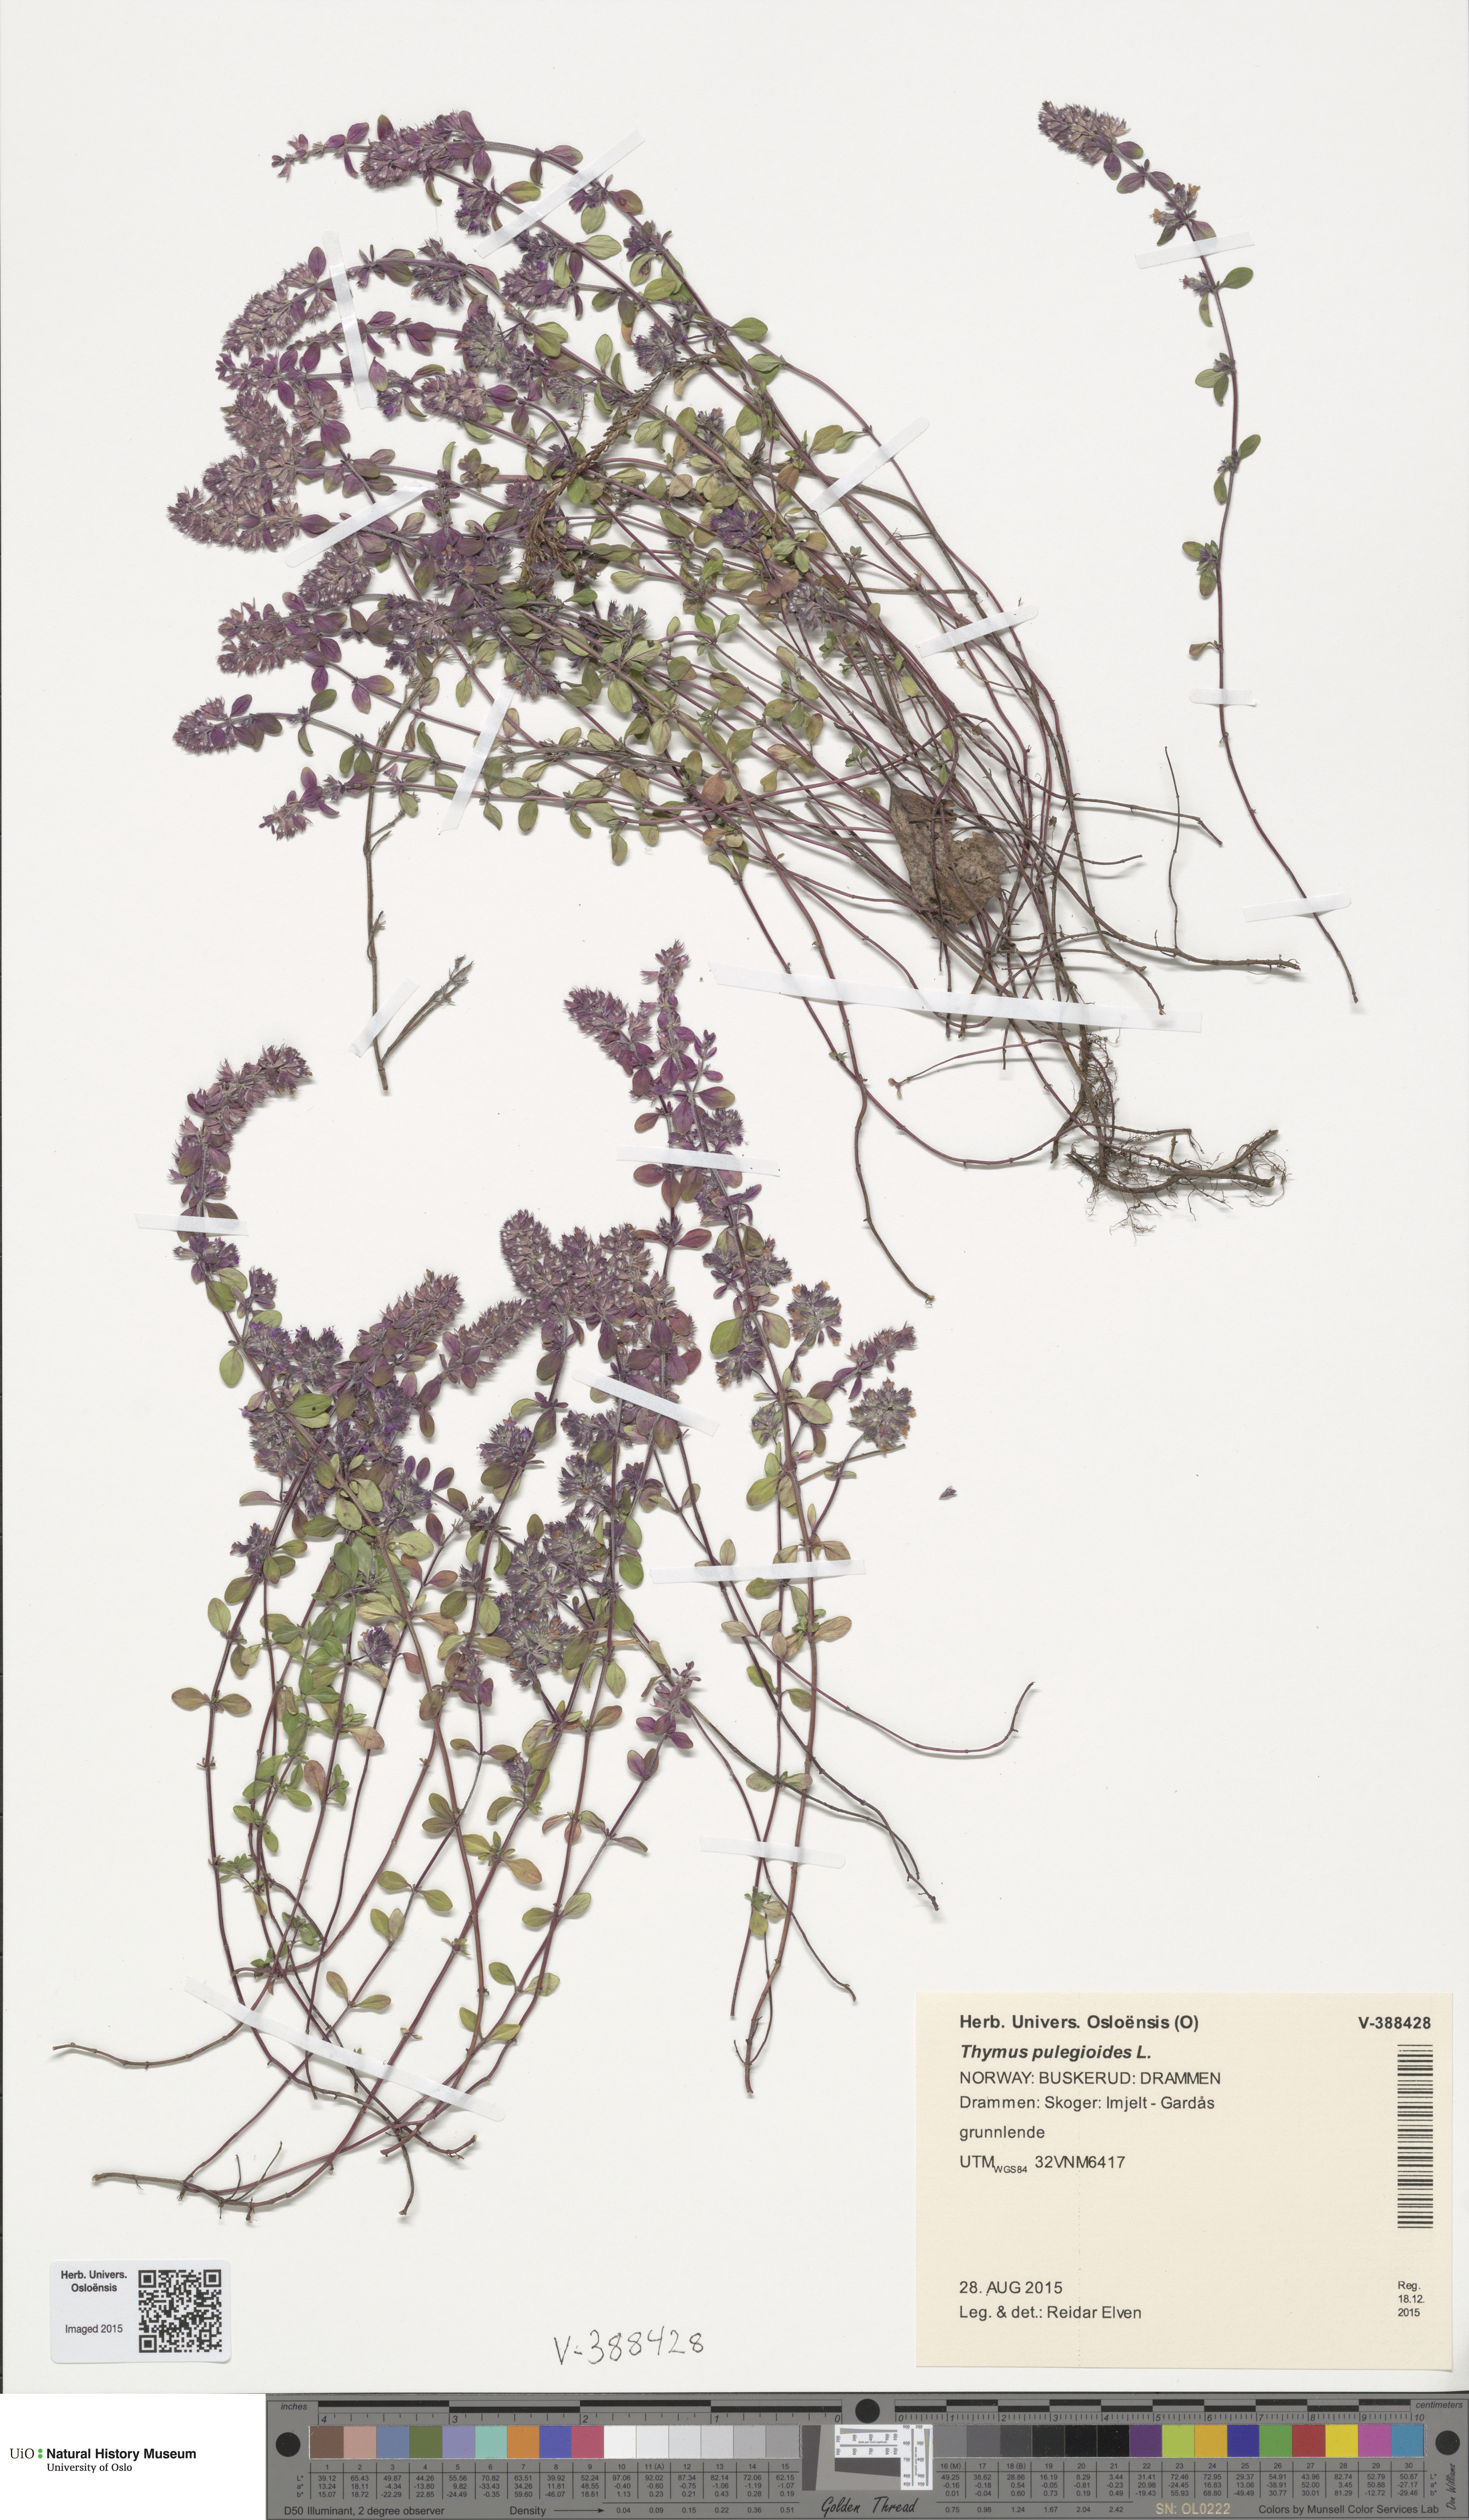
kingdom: Plantae
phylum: Tracheophyta
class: Magnoliopsida
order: Lamiales
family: Lamiaceae
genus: Thymus
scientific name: Thymus pulegioides
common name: Large thyme
